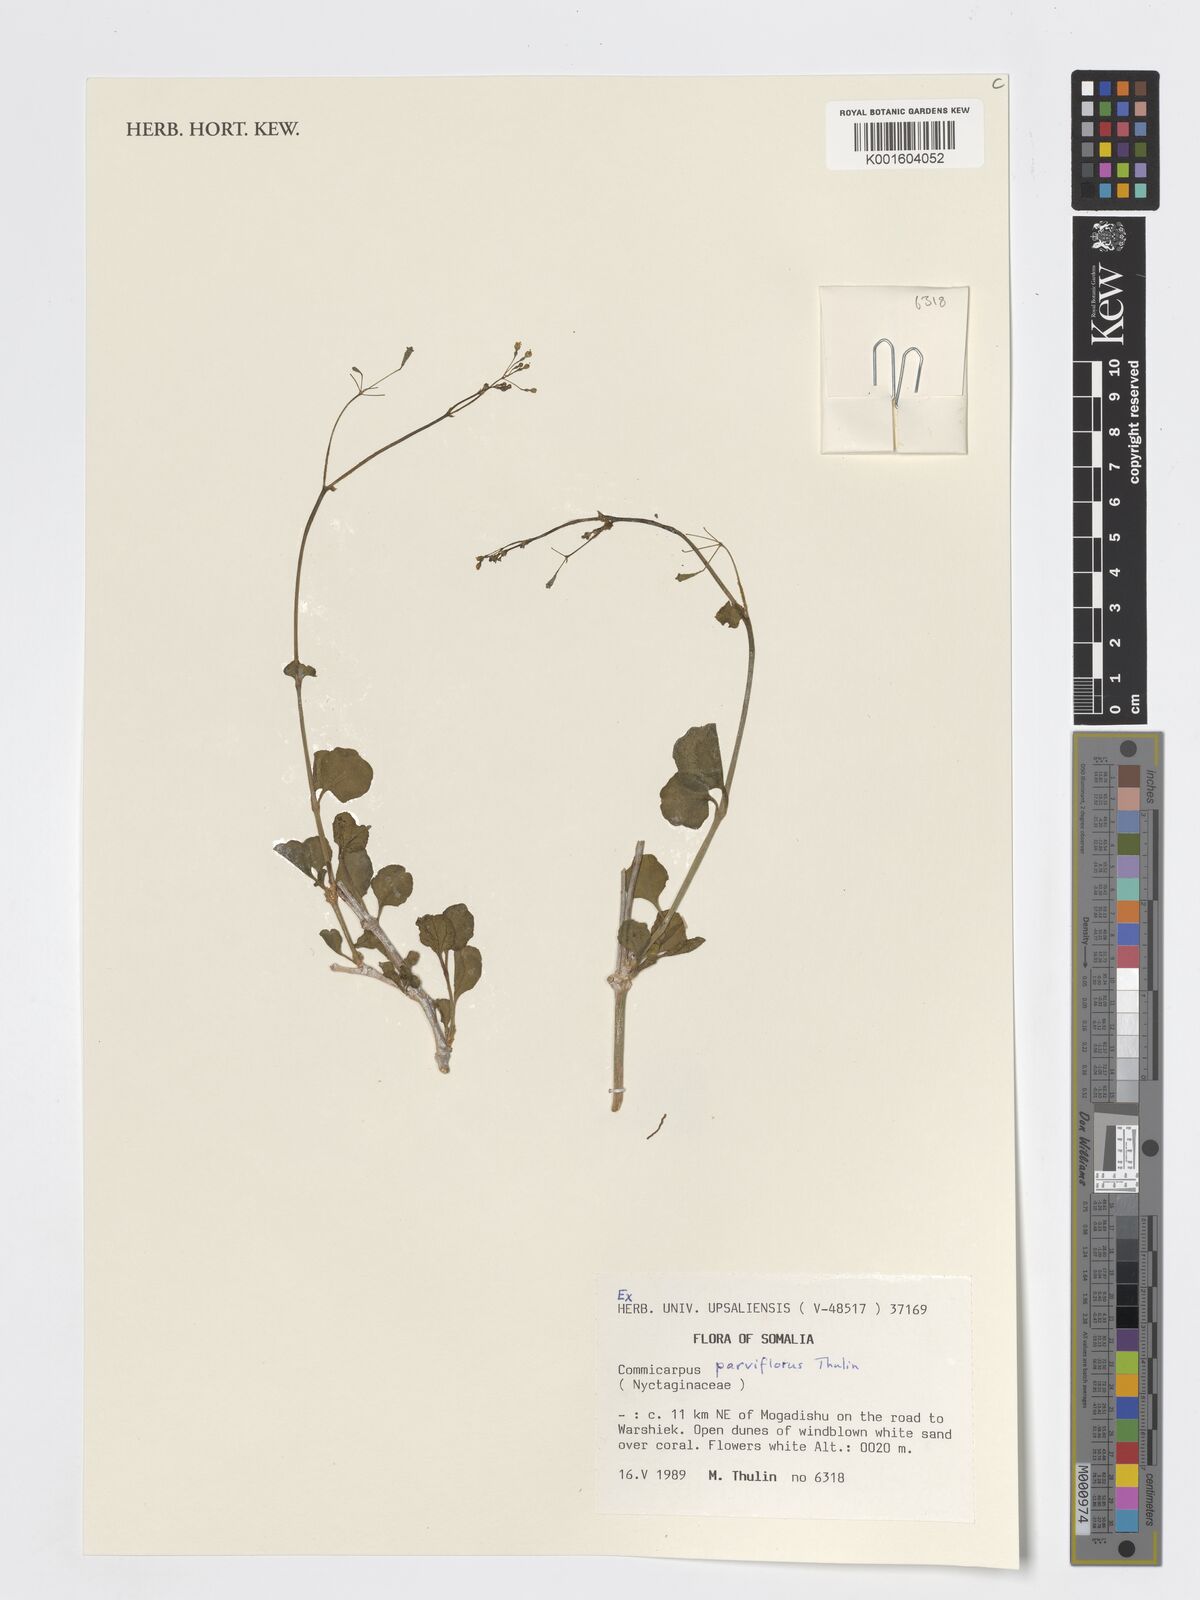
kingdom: Plantae
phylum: Tracheophyta
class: Magnoliopsida
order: Caryophyllales
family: Nyctaginaceae
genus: Commicarpus
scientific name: Commicarpus parviflorus
